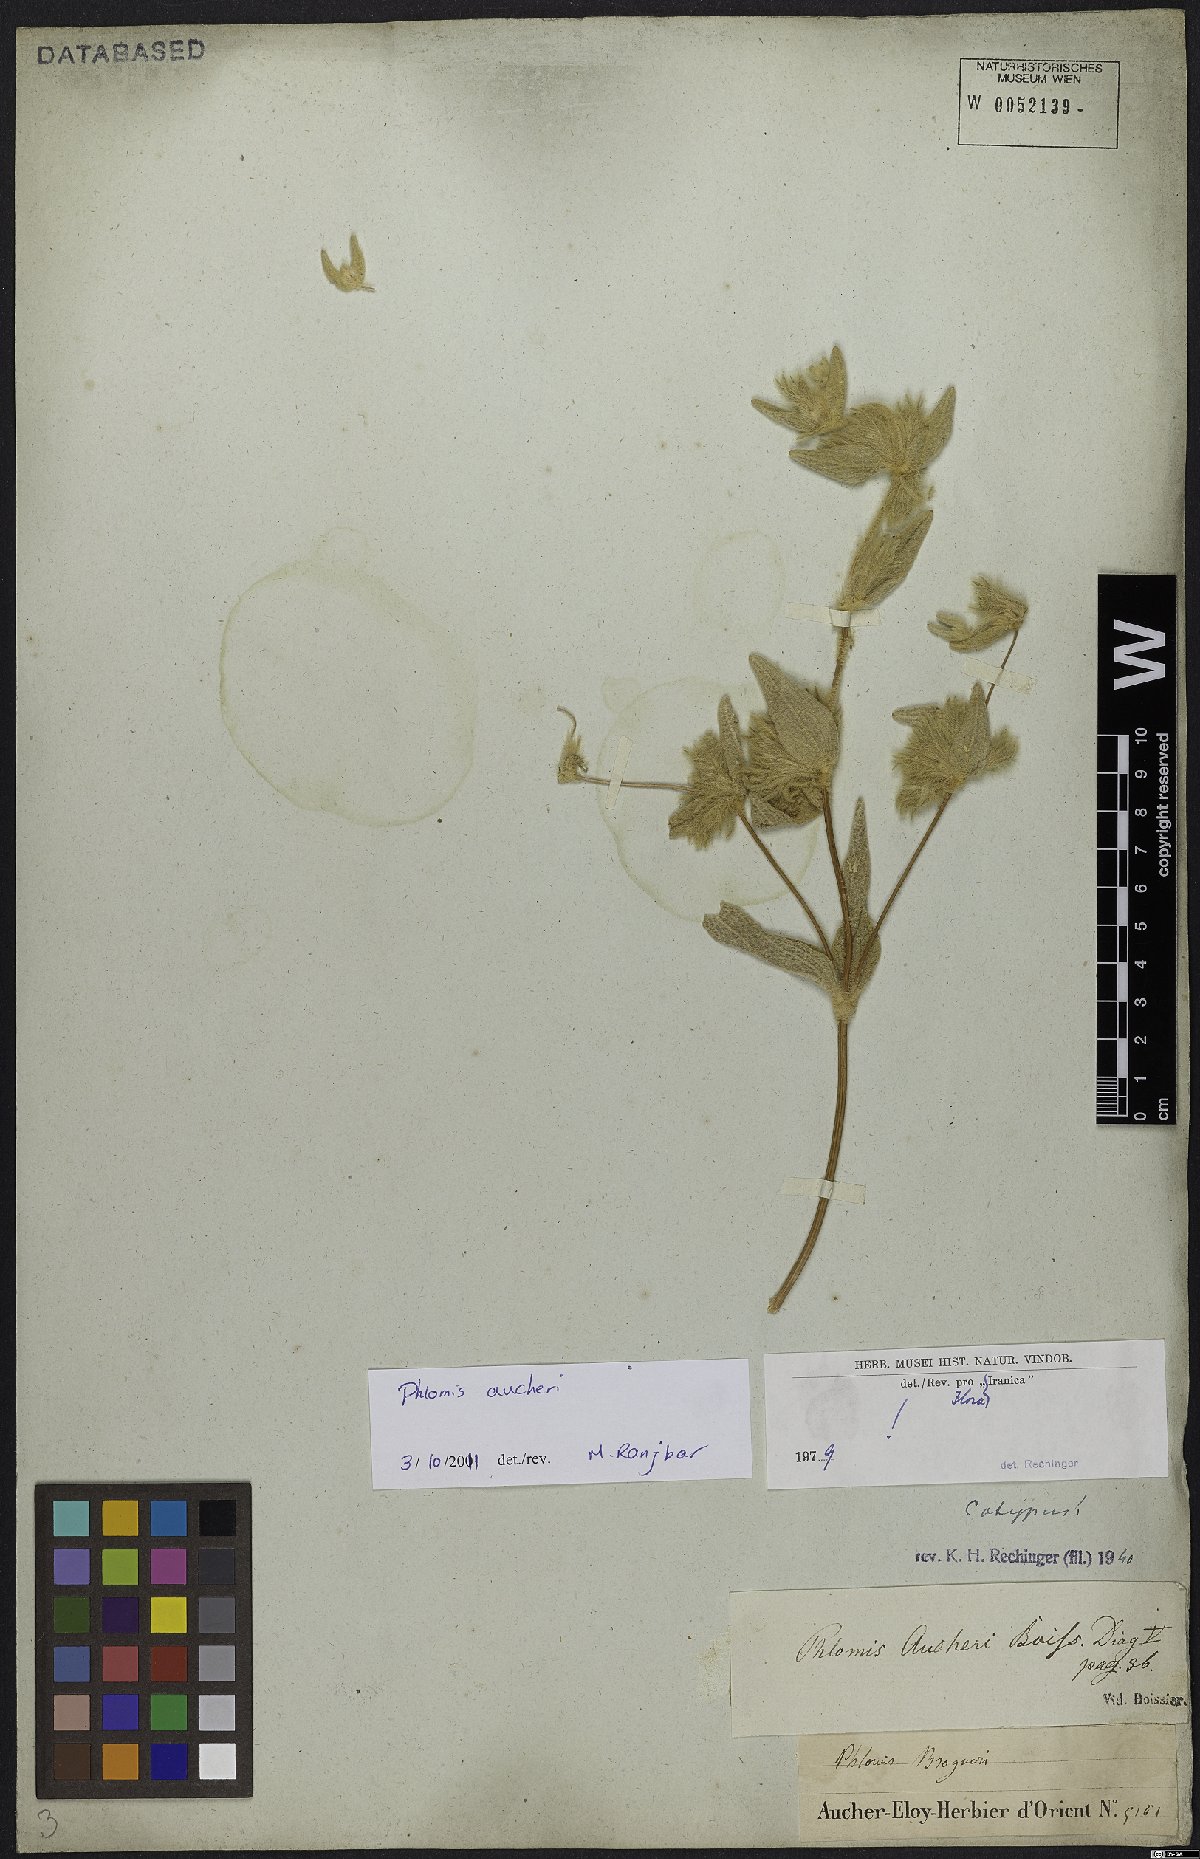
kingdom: Plantae
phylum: Tracheophyta
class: Magnoliopsida
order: Lamiales
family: Lamiaceae
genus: Phlomis
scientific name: Phlomis aucheri
